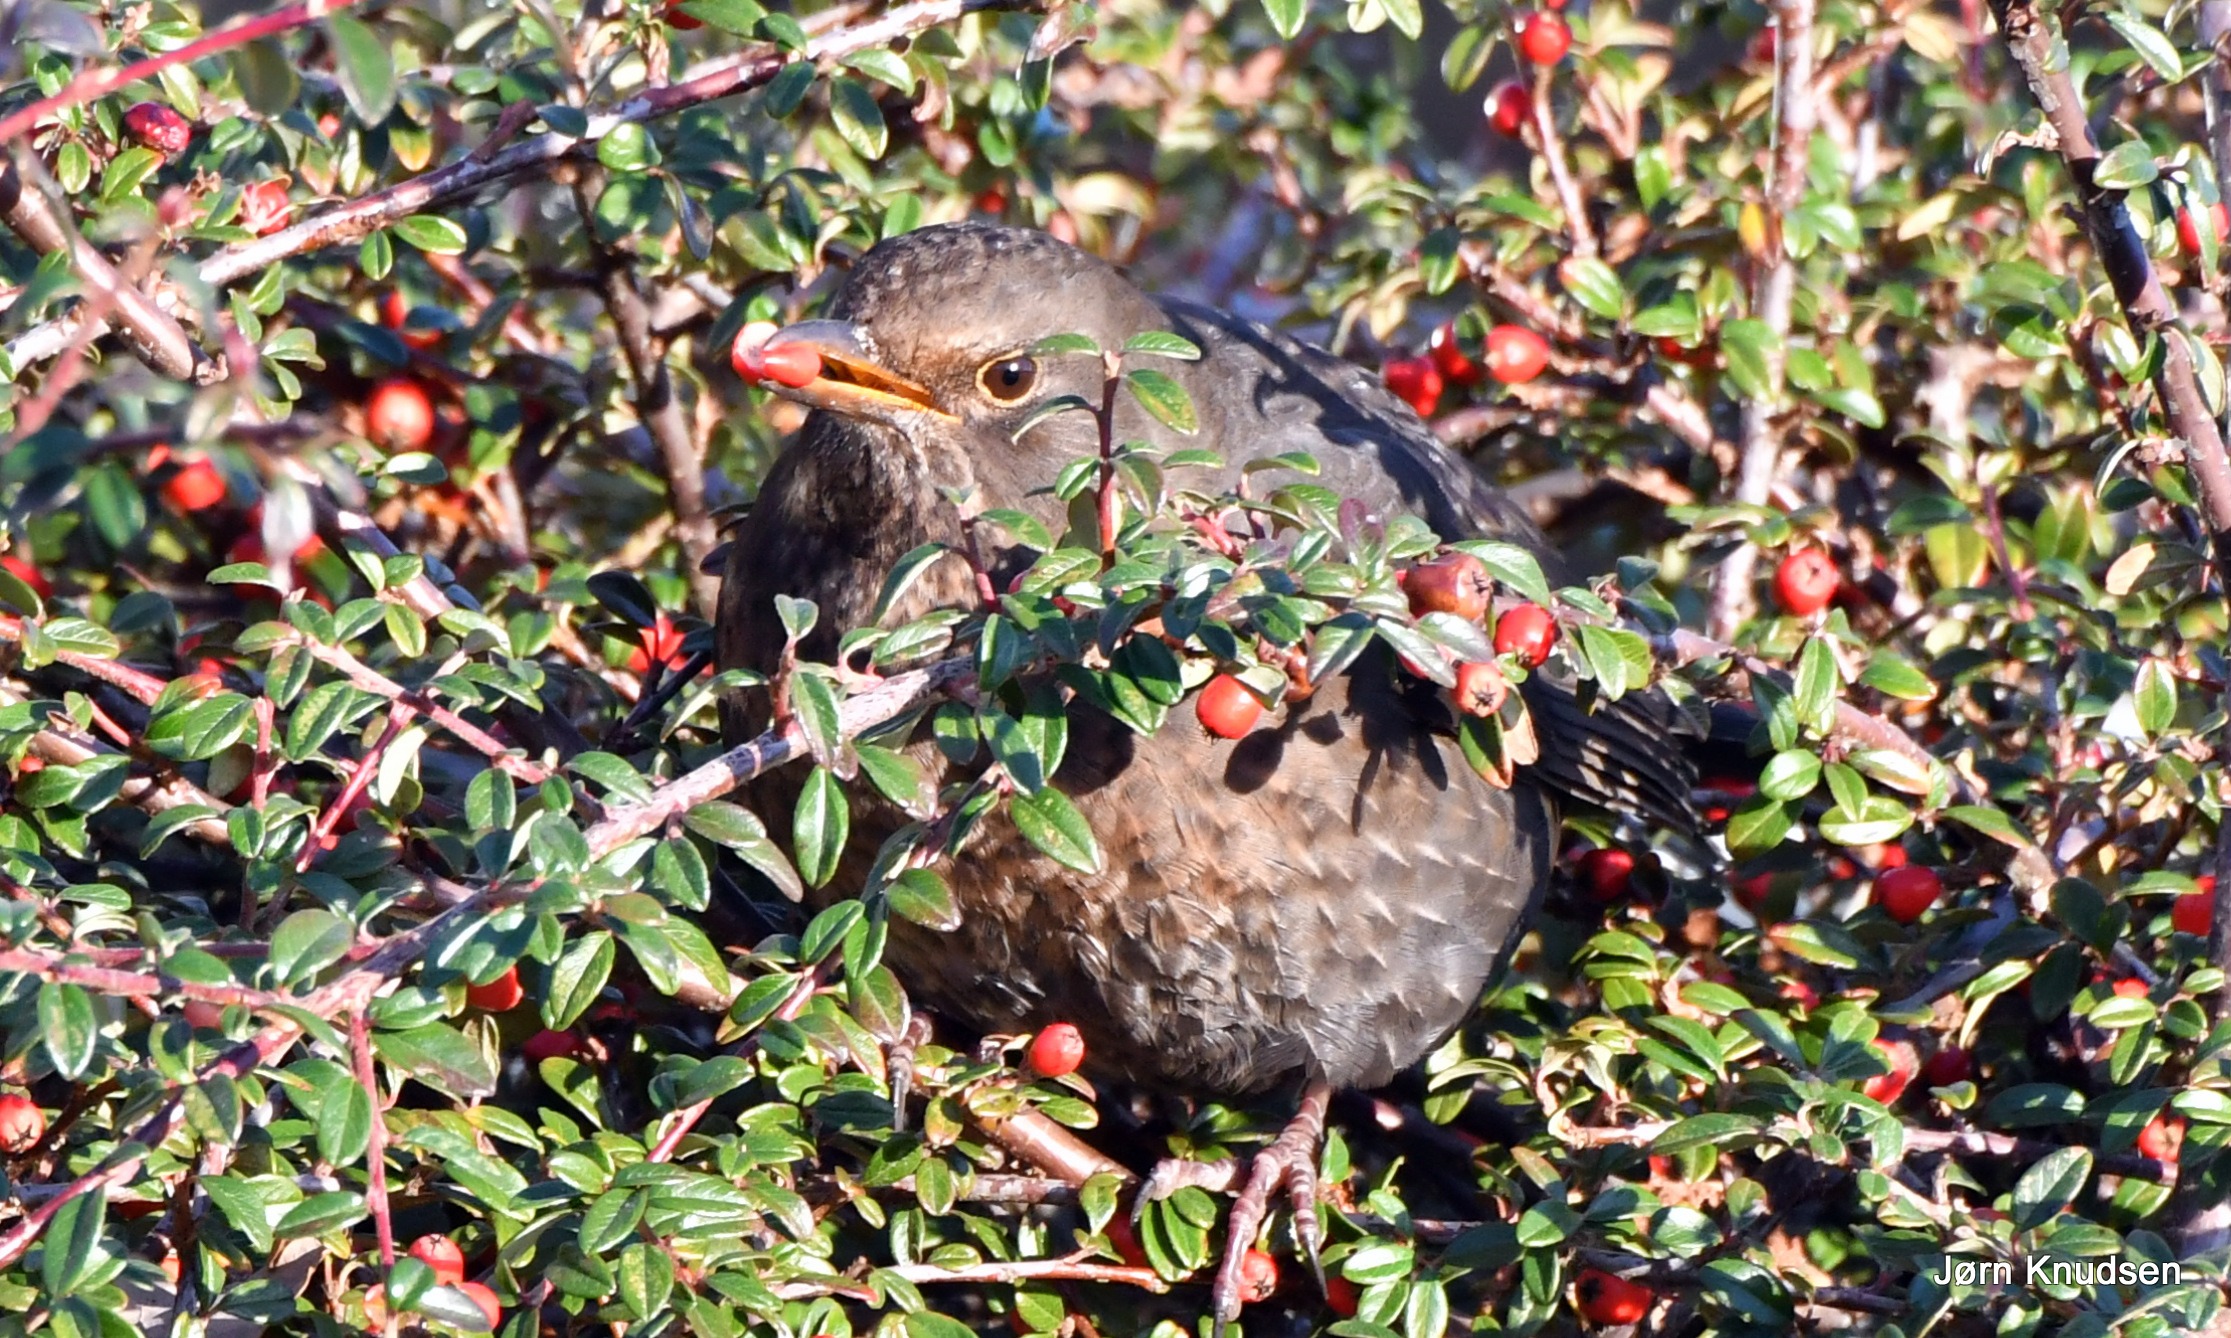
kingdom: Animalia
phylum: Chordata
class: Aves
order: Passeriformes
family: Turdidae
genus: Turdus
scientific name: Turdus merula
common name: Solsort
